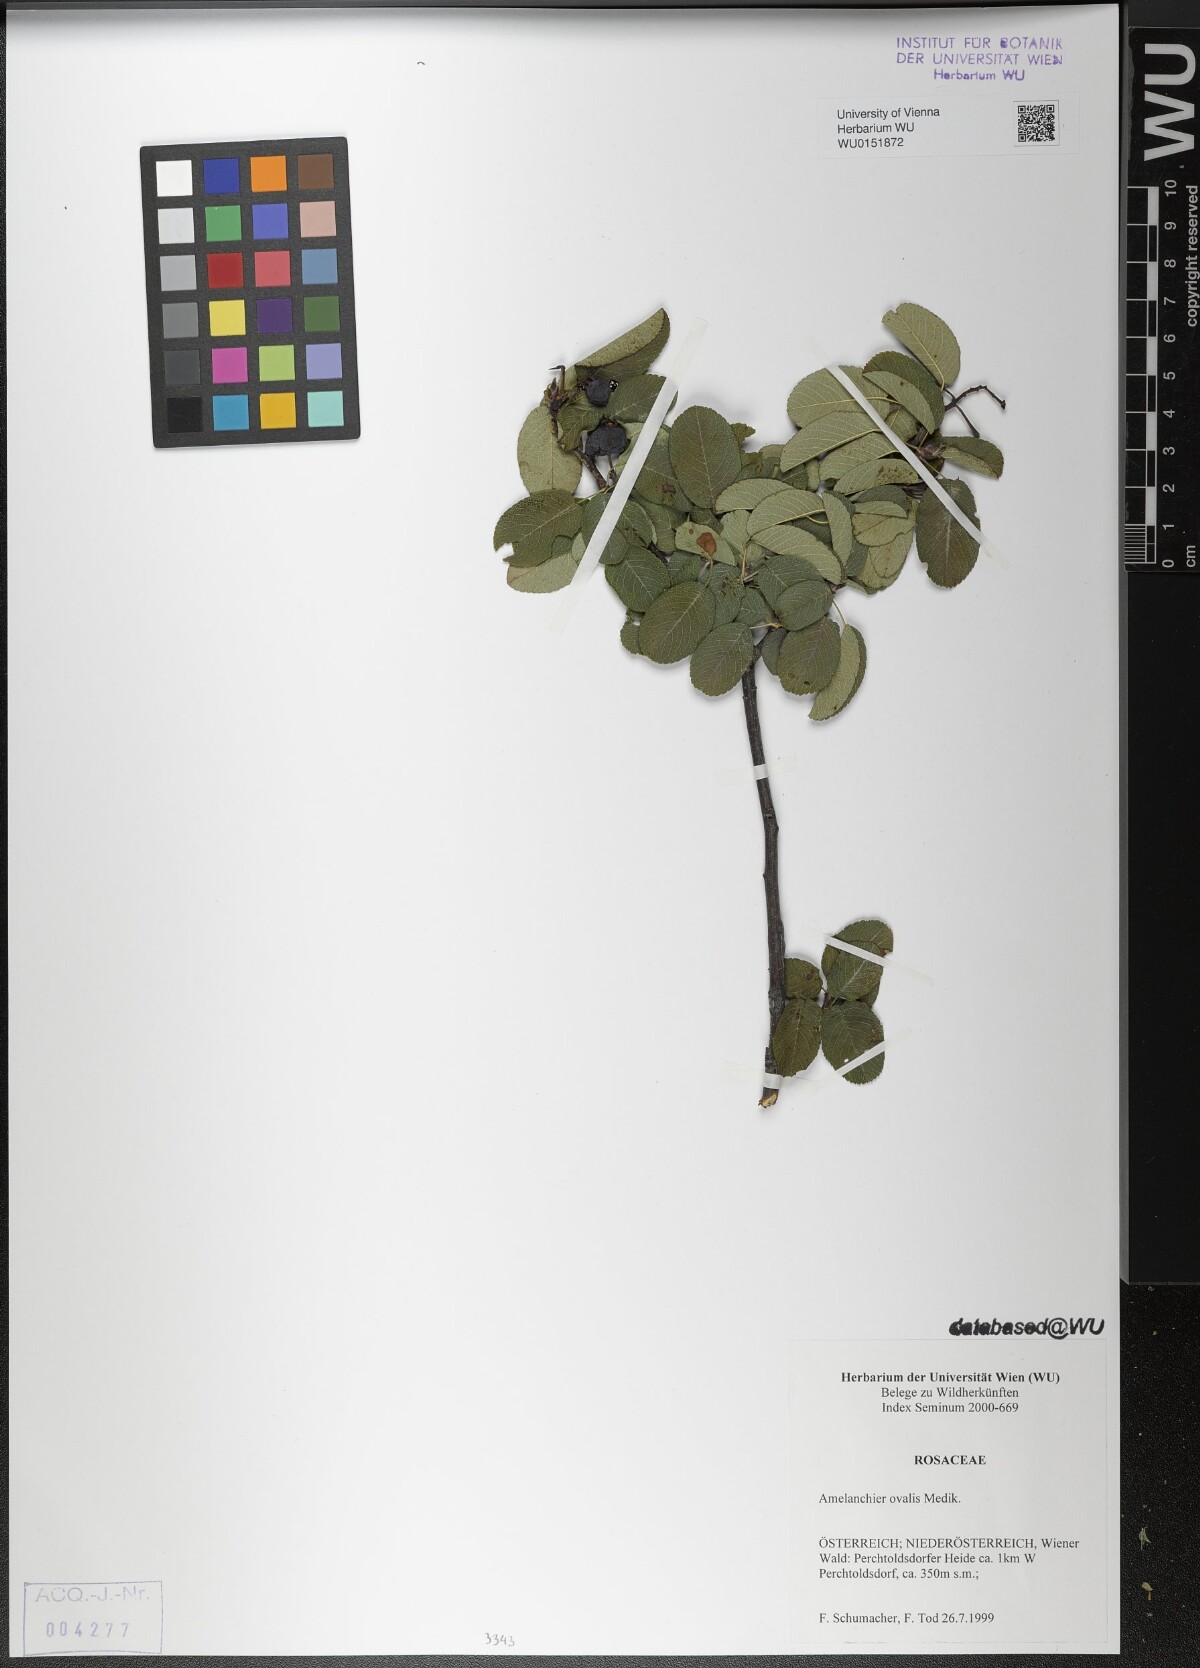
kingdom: Plantae
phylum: Tracheophyta
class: Magnoliopsida
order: Rosales
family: Rosaceae
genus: Amelanchier
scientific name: Amelanchier ovalis
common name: Serviceberry
